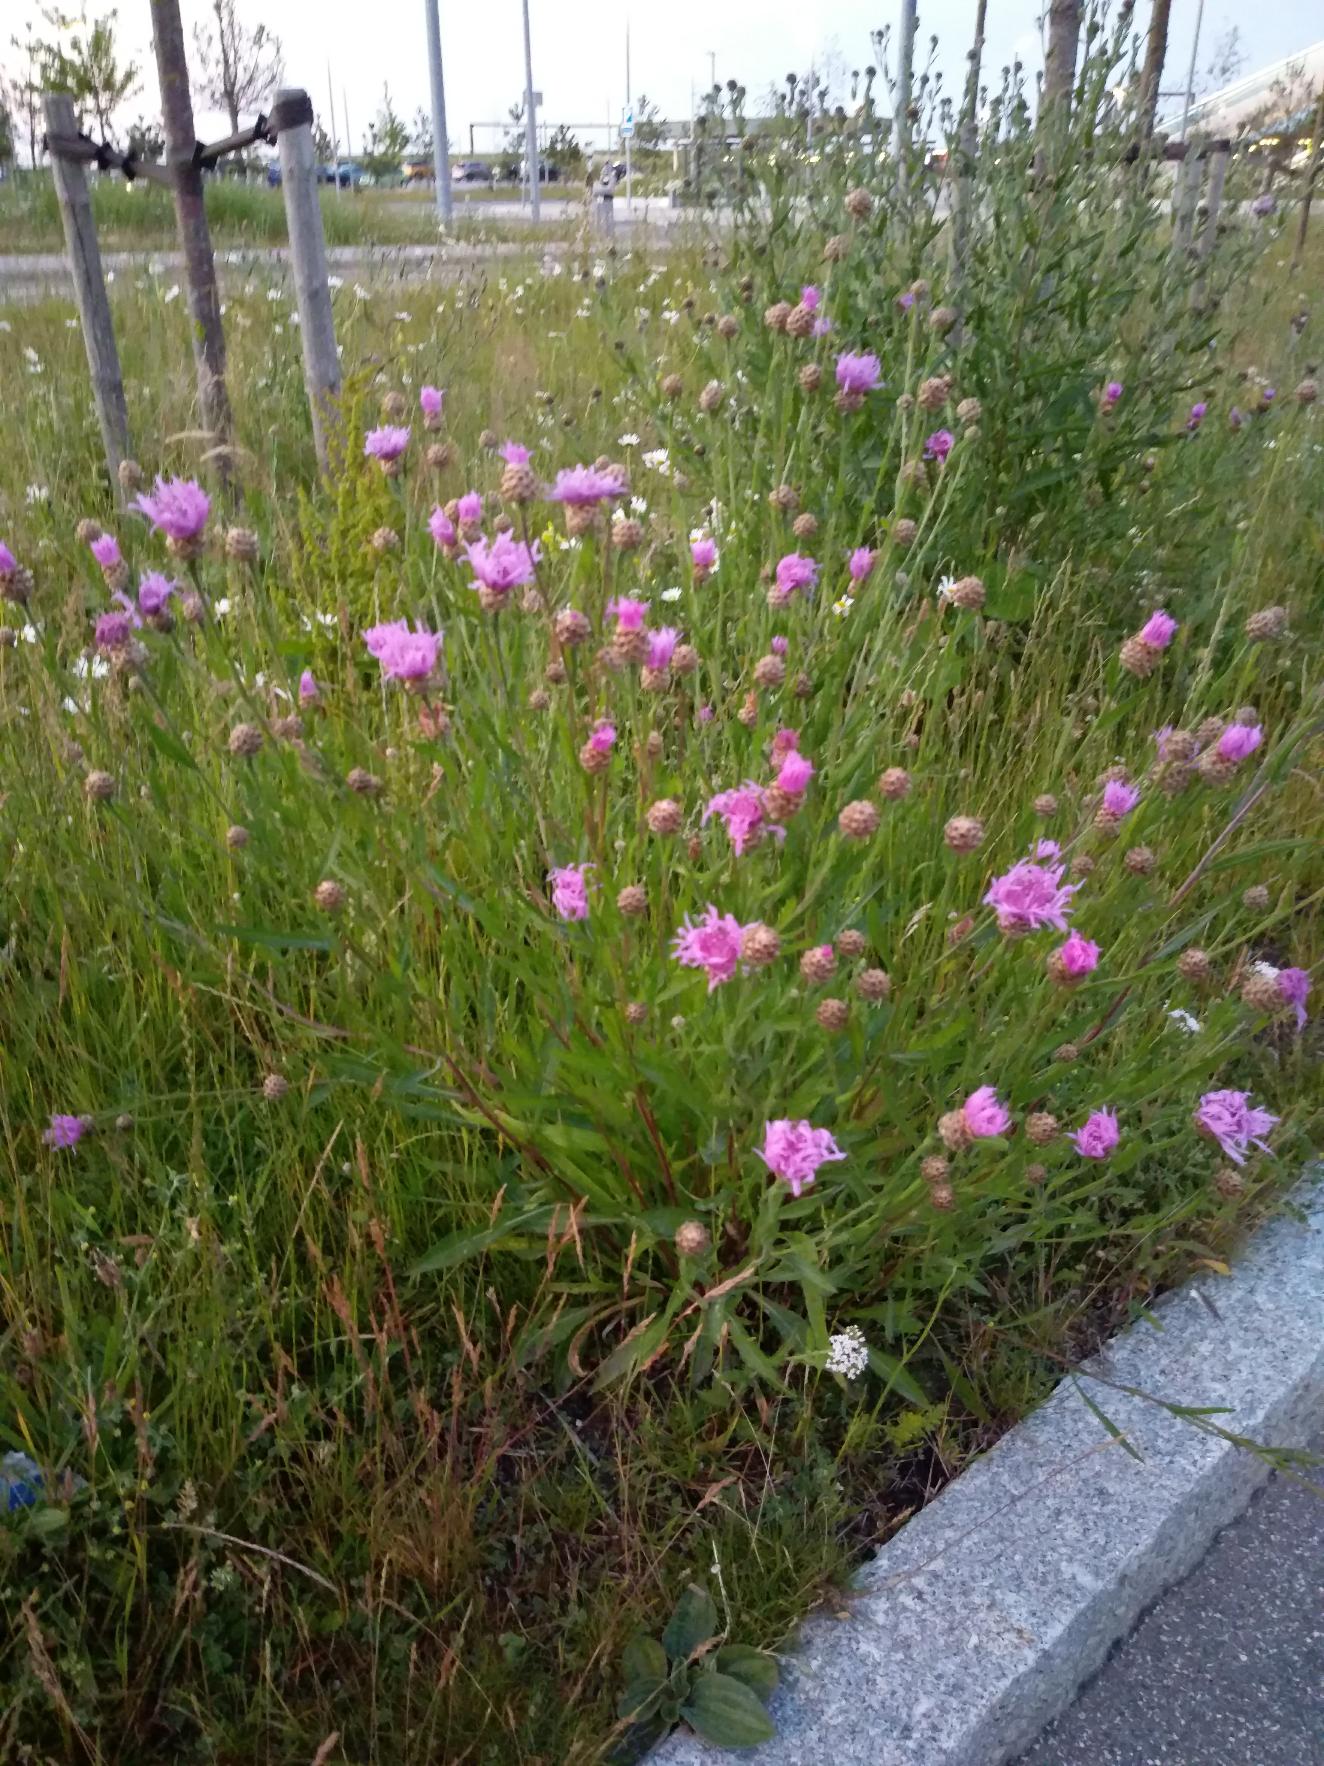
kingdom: Plantae
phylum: Tracheophyta
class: Magnoliopsida
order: Asterales
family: Asteraceae
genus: Centaurea
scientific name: Centaurea jacea
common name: Almindelig knopurt
